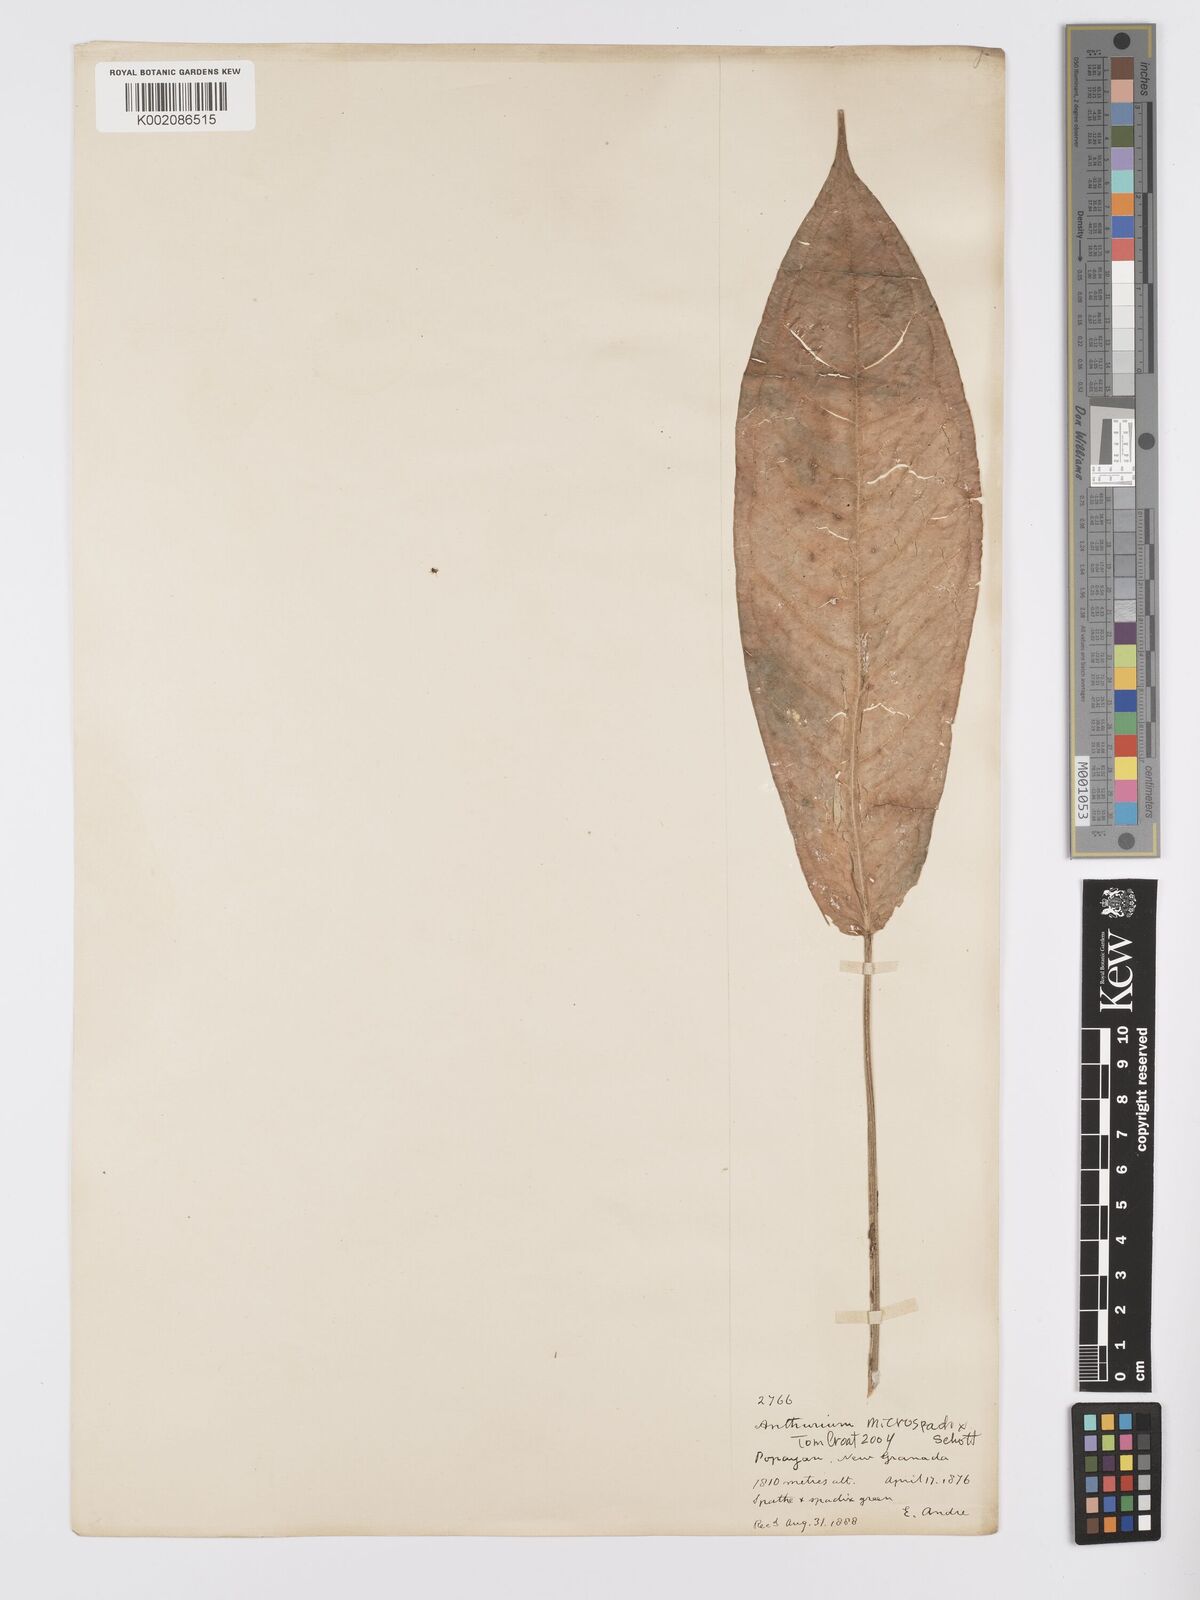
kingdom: Plantae
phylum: Tracheophyta
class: Liliopsida
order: Alismatales
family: Araceae
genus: Anthurium
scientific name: Anthurium microspadix
